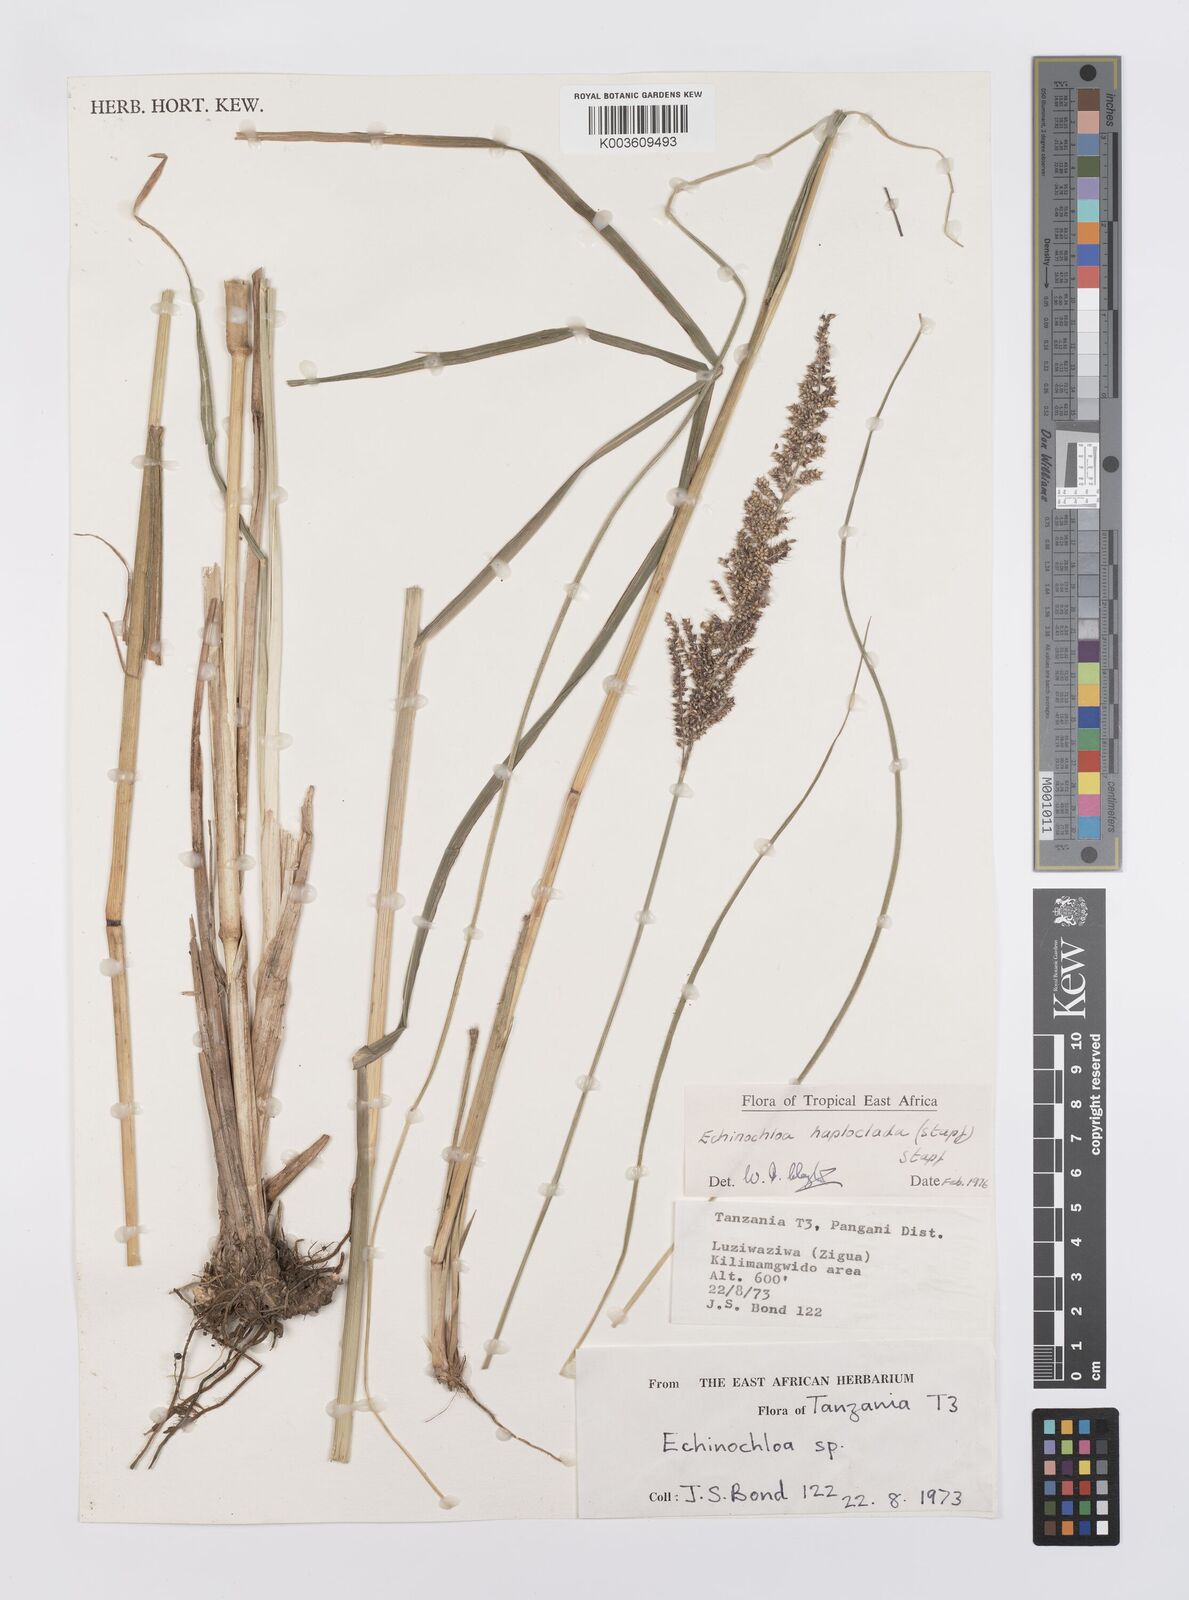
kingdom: Plantae
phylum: Tracheophyta
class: Liliopsida
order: Poales
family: Poaceae
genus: Echinochloa
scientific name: Echinochloa haploclada
